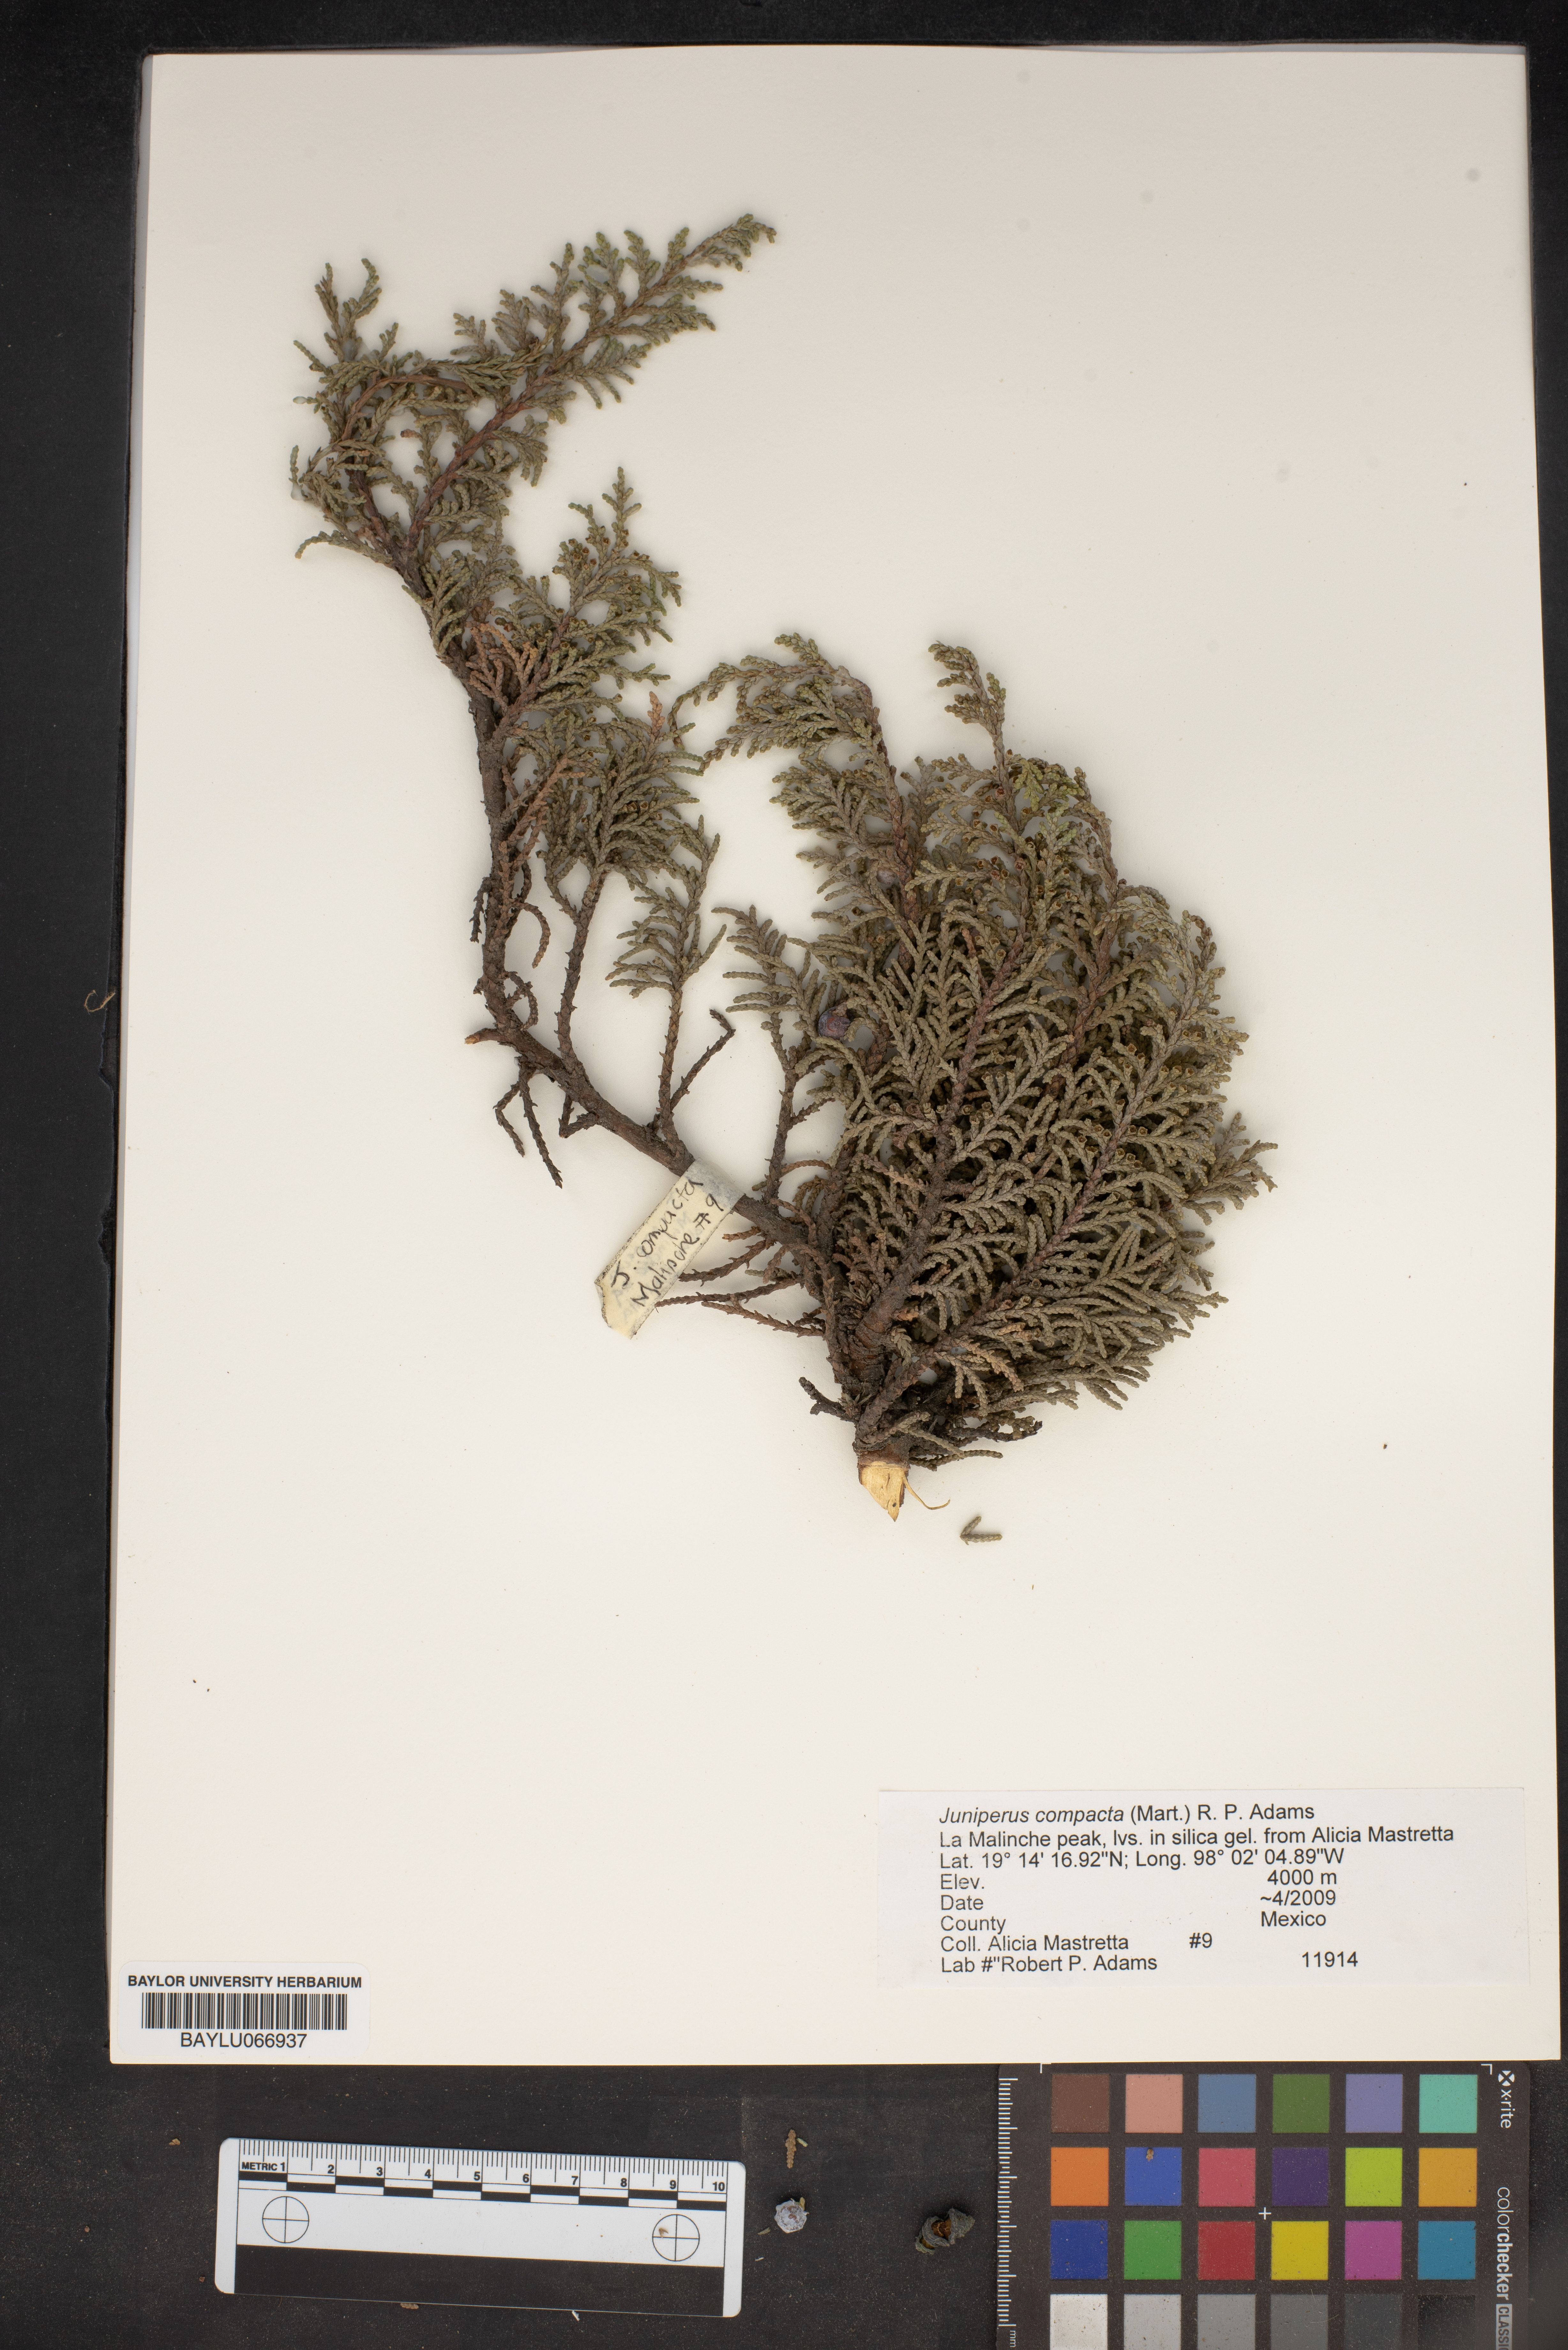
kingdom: Plantae
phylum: Tracheophyta
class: Pinopsida
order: Pinales
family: Cupressaceae
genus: Juniperus
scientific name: Juniperus monticola
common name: Mexican juniper
